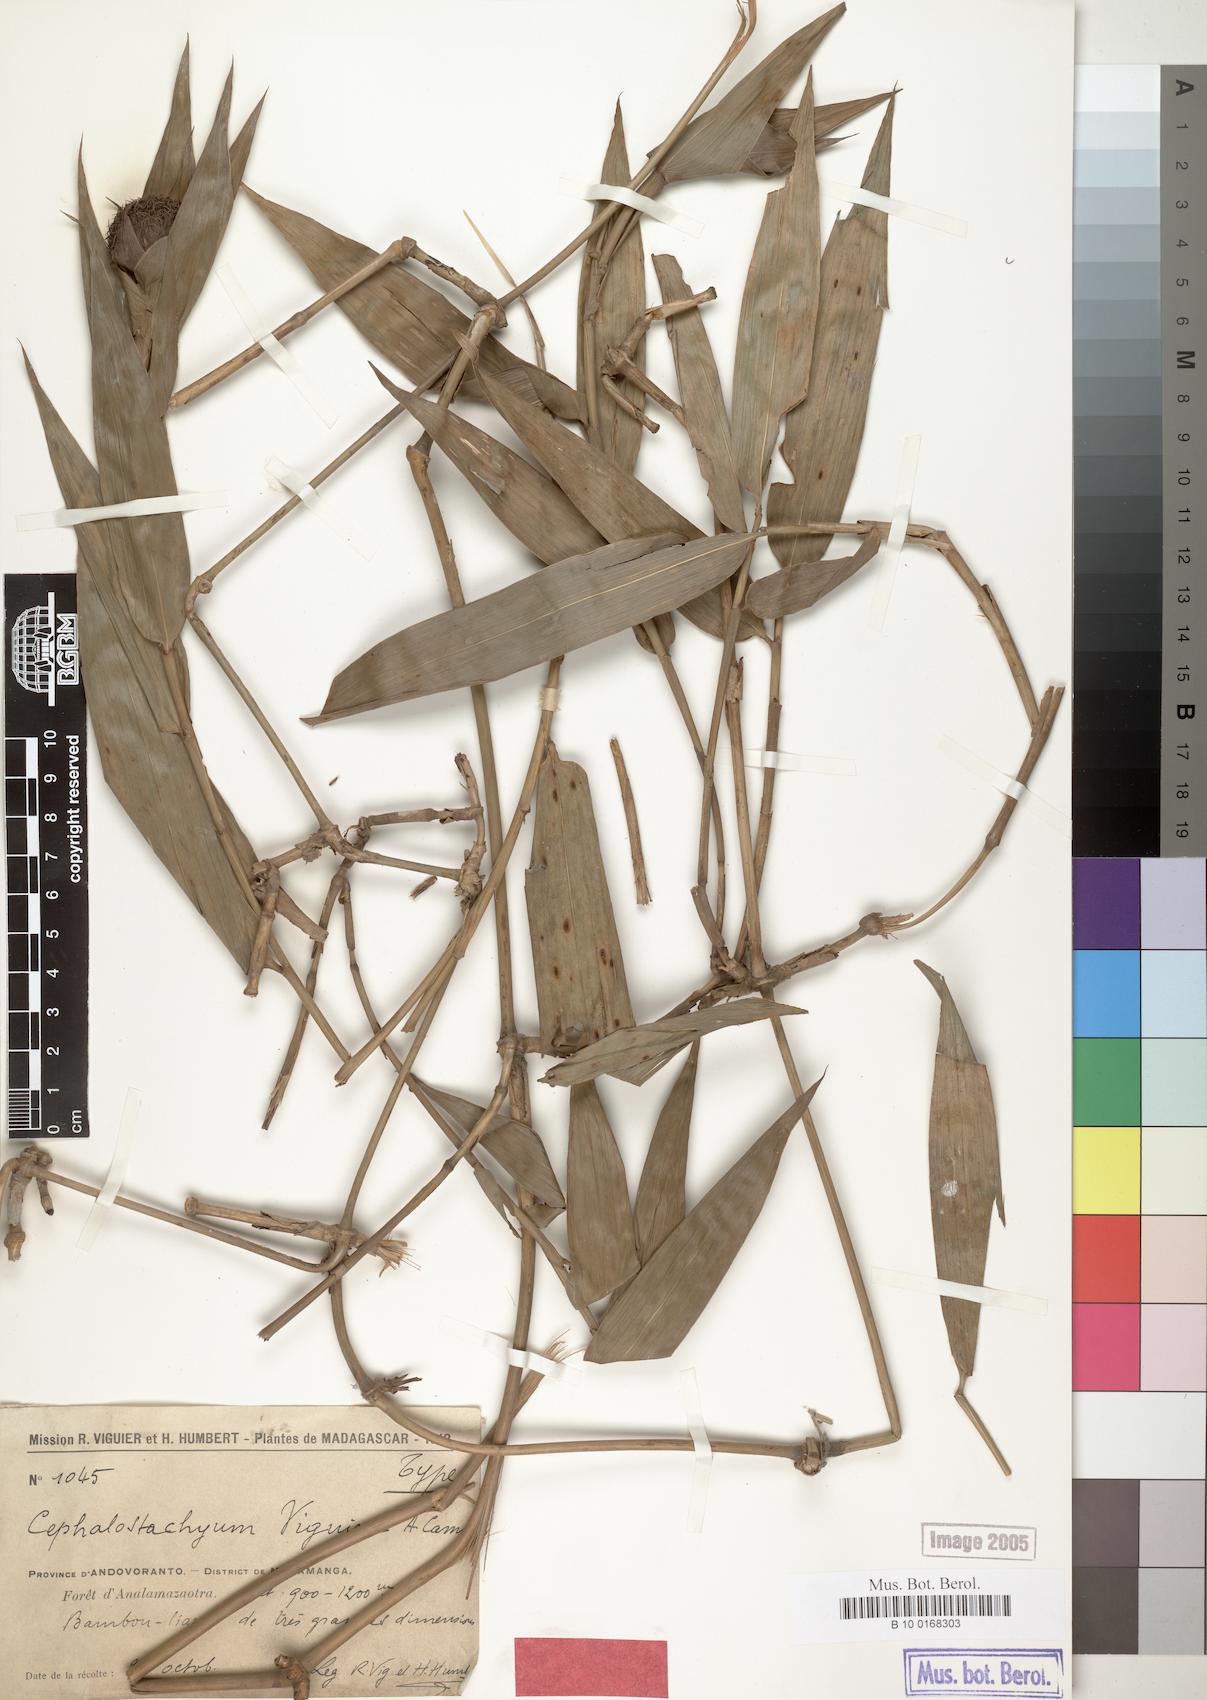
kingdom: Plantae
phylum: Tracheophyta
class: Liliopsida
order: Poales
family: Poaceae
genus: Sokinochloa
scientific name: Sokinochloa viguieri
